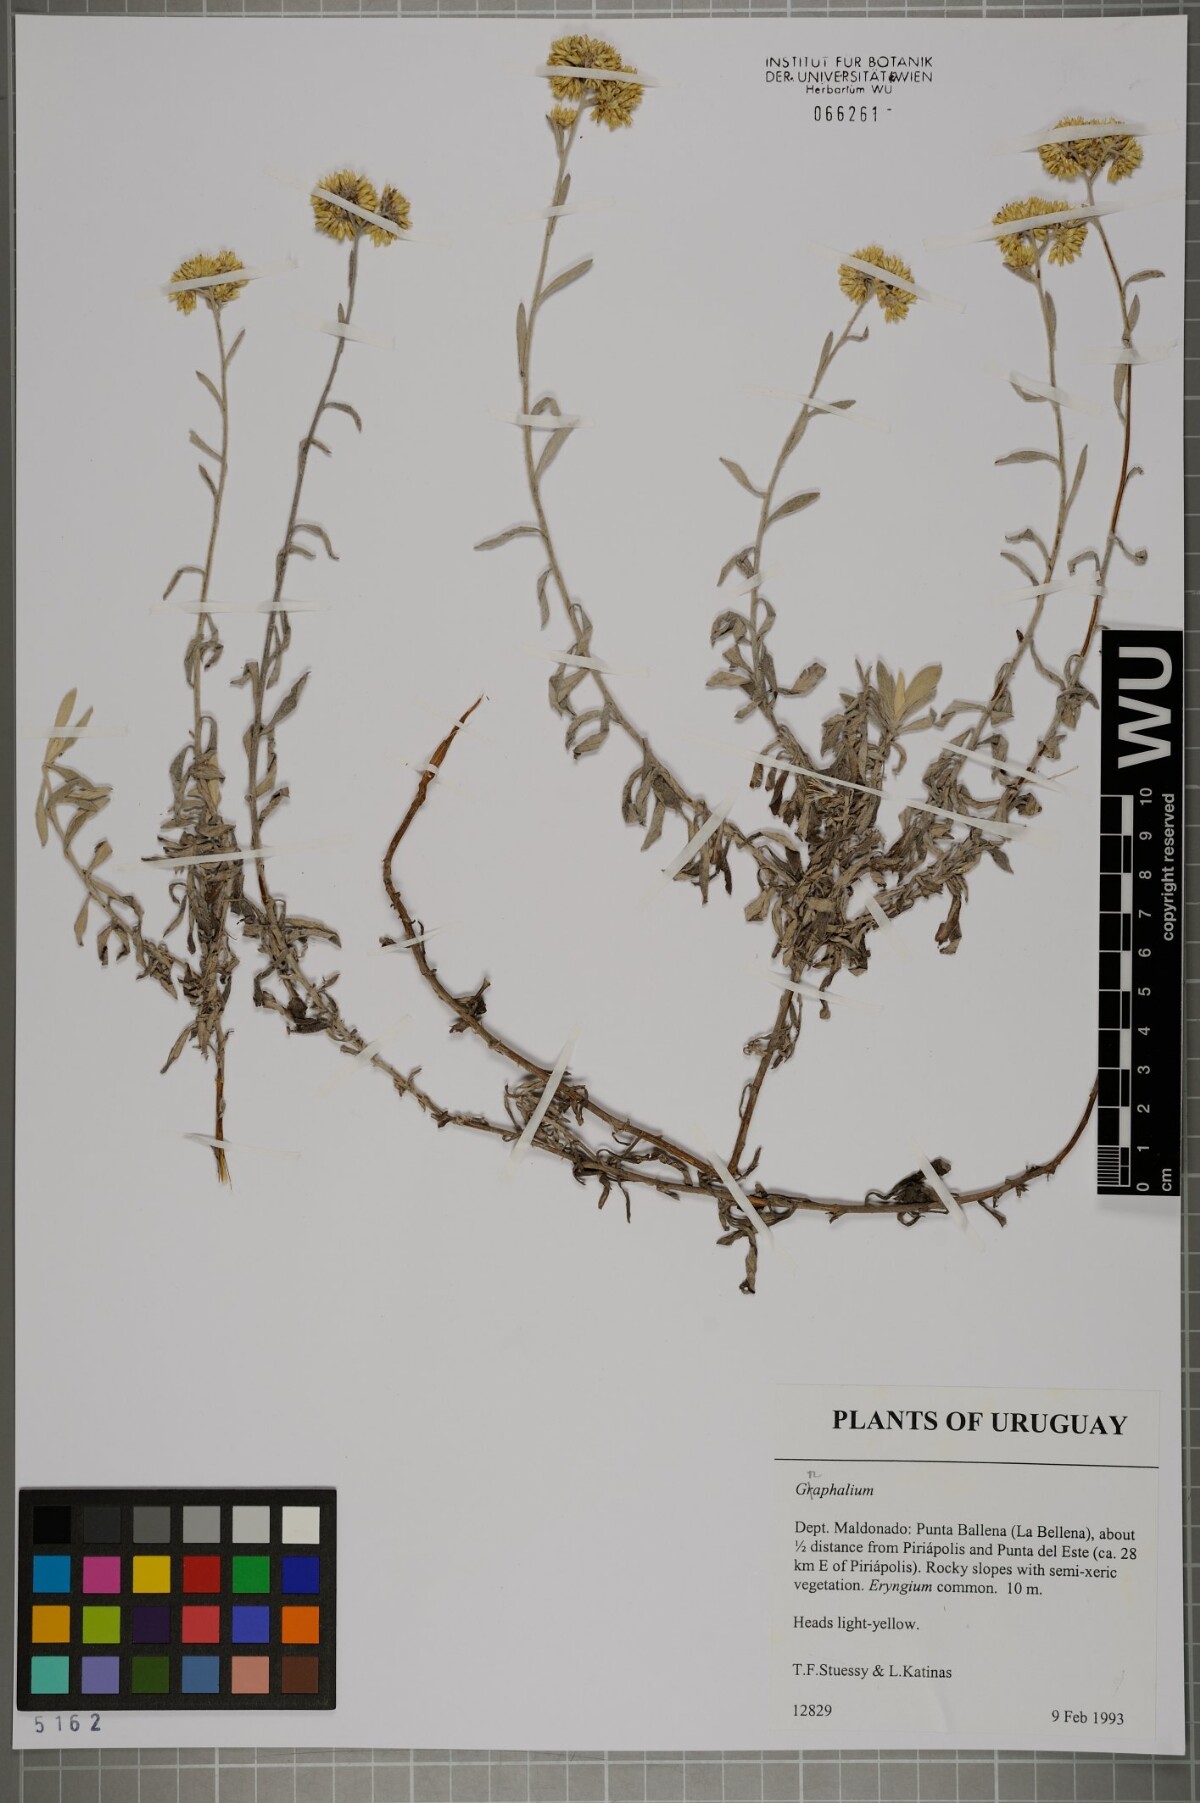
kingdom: Plantae
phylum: Tracheophyta
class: Magnoliopsida
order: Asterales
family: Asteraceae
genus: Gnaphalium
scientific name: Gnaphalium
